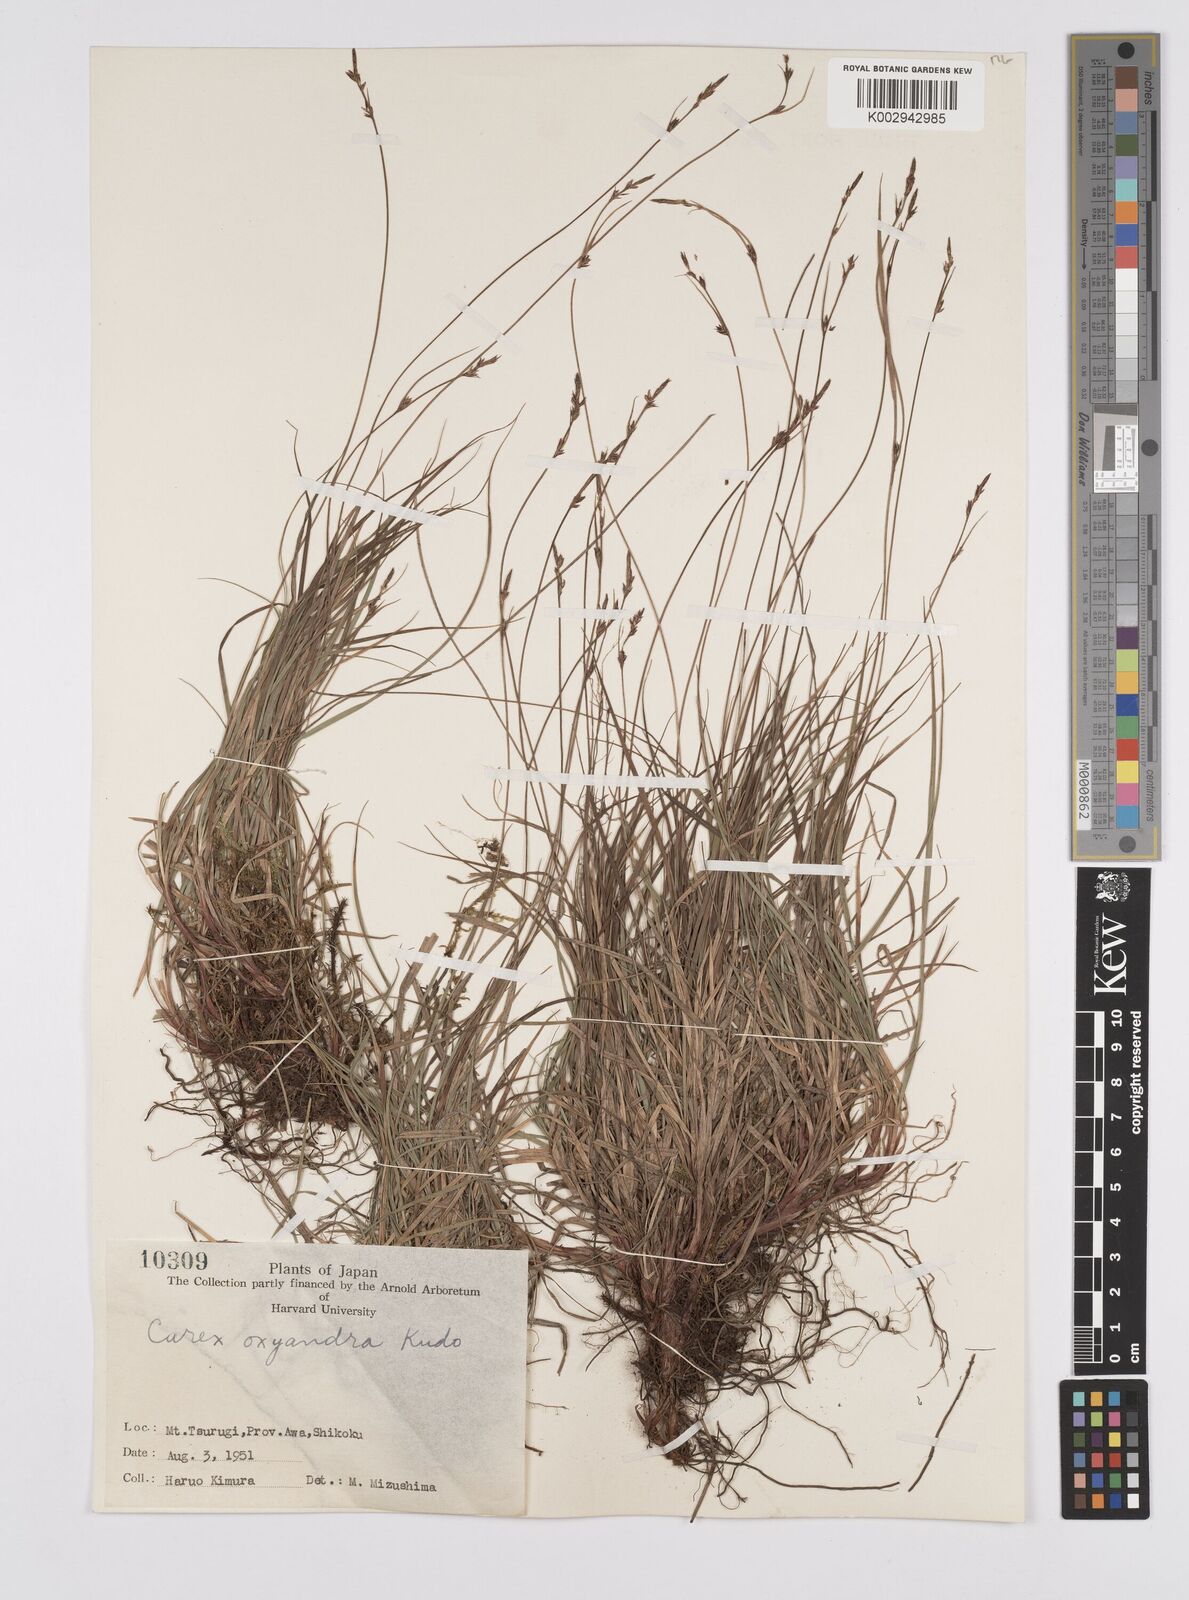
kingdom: Plantae
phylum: Tracheophyta
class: Liliopsida
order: Poales
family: Cyperaceae
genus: Carex
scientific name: Carex oxyandra
